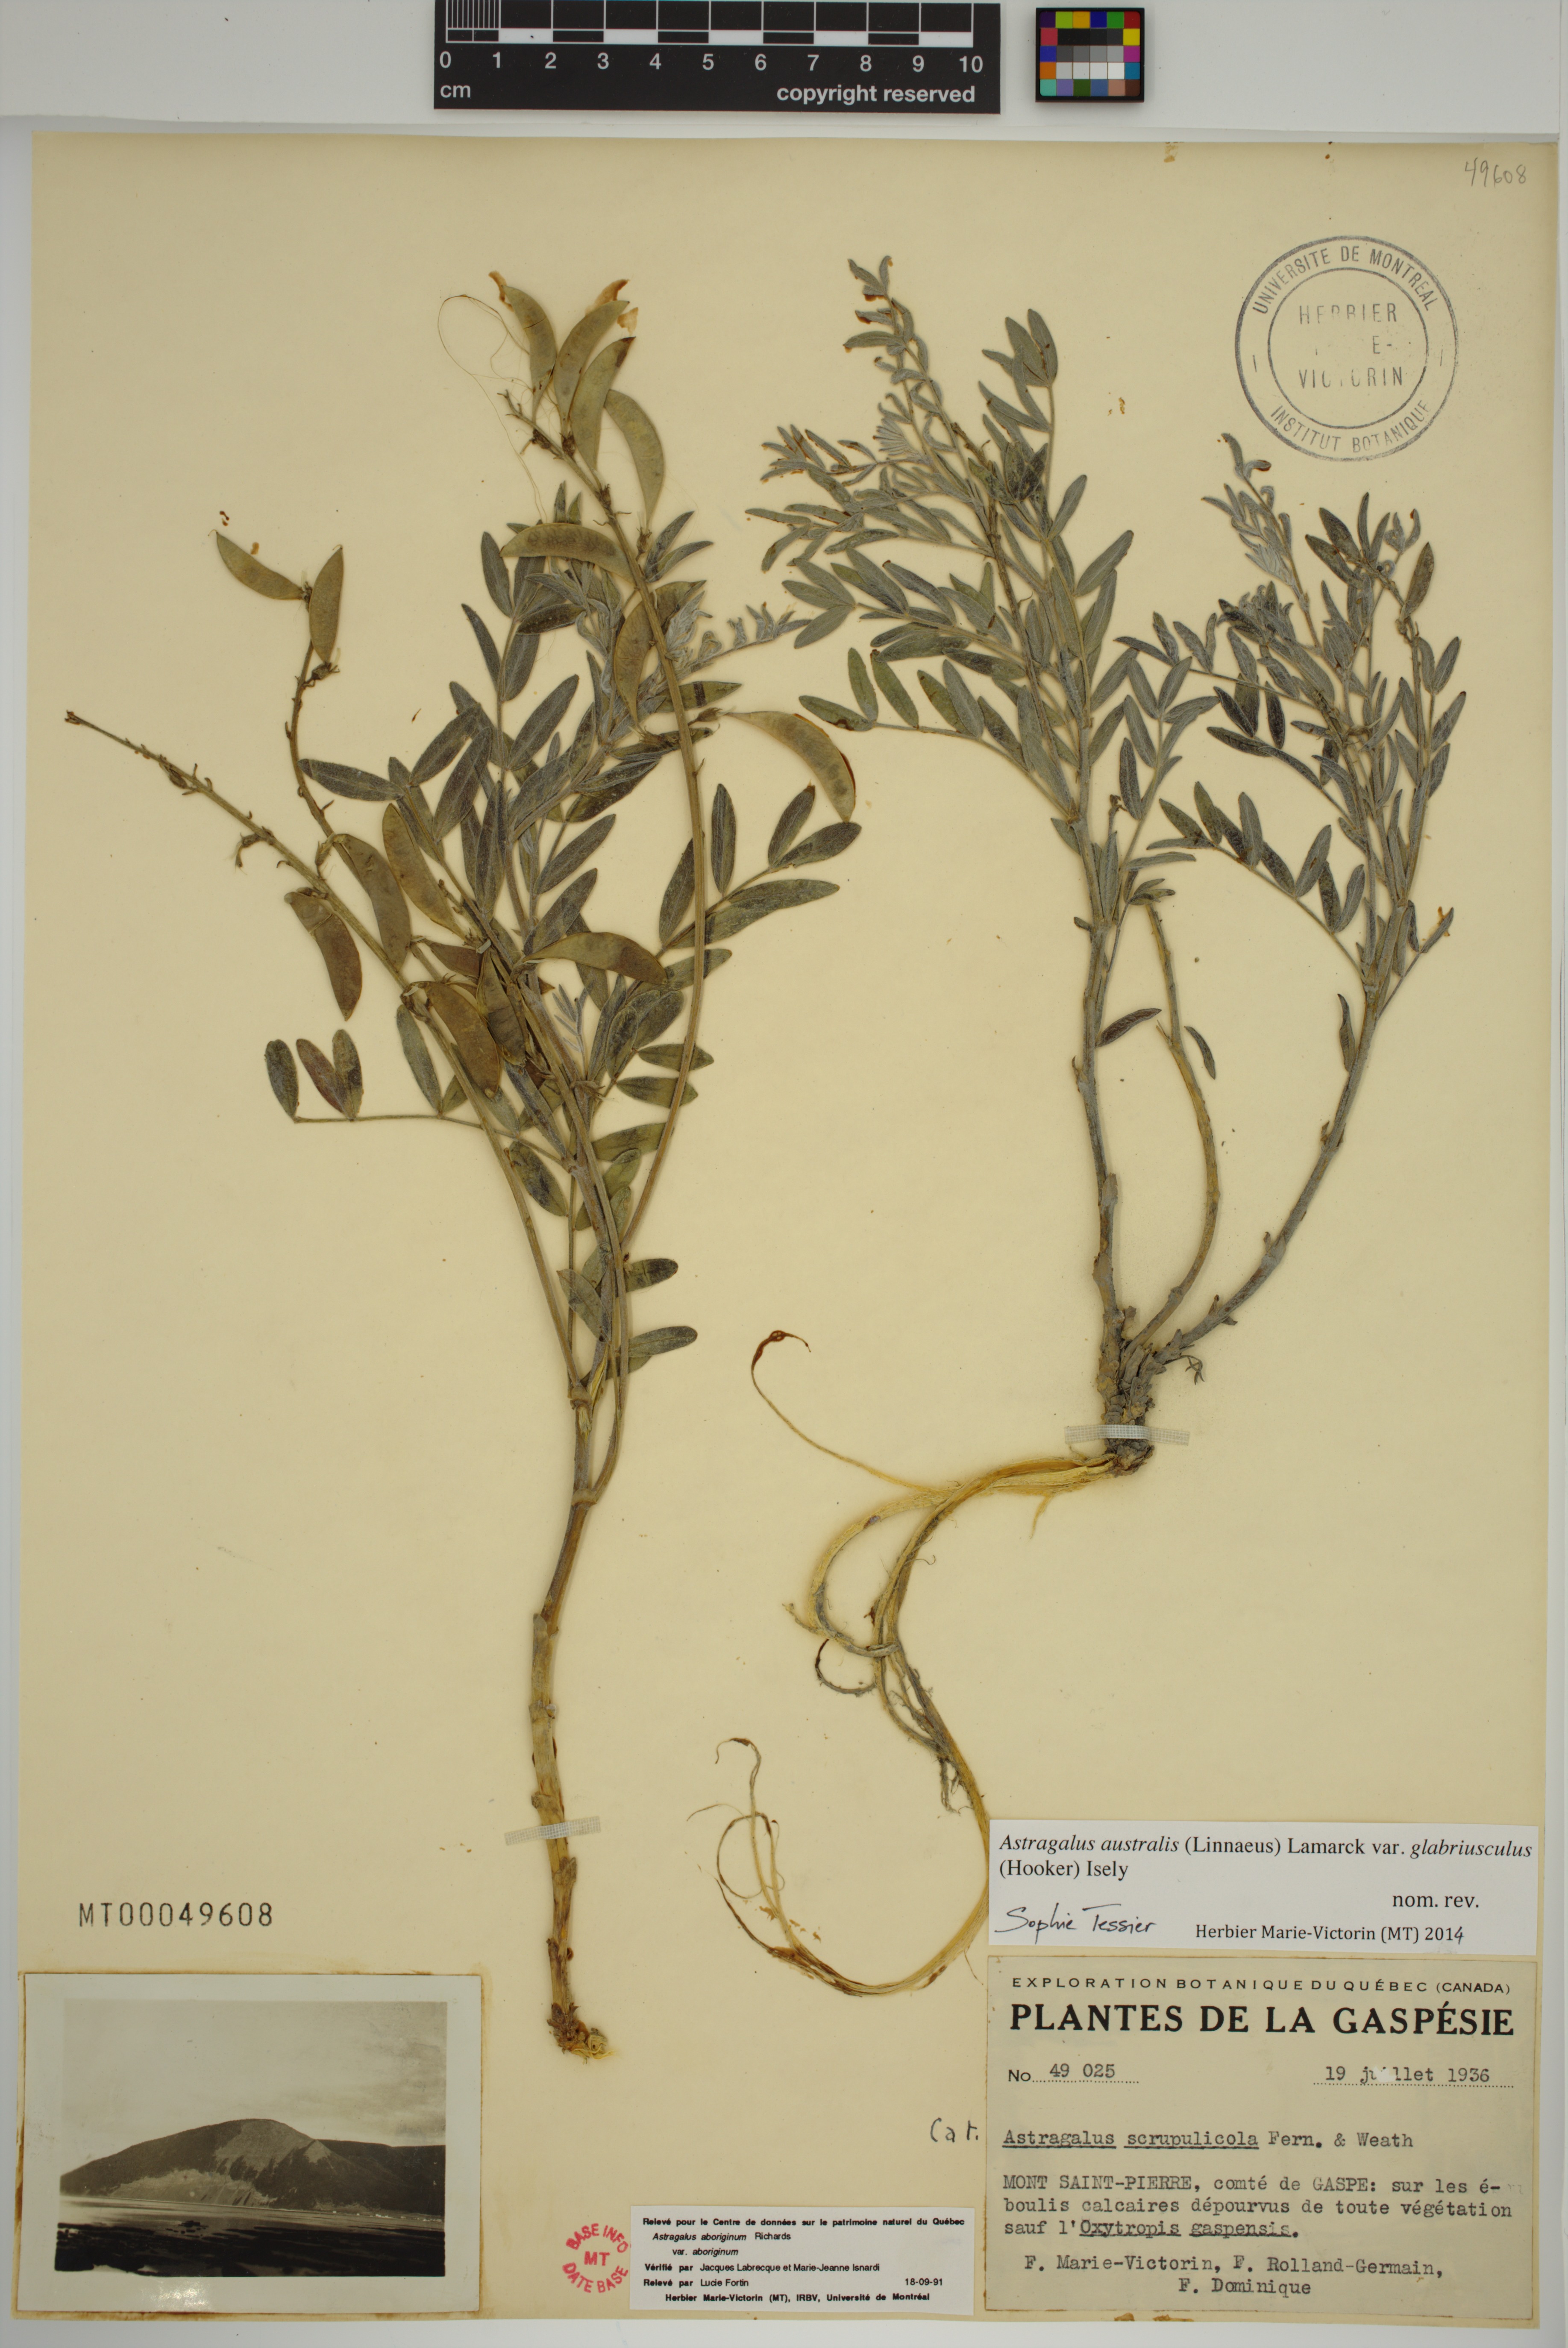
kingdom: Plantae
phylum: Tracheophyta
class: Magnoliopsida
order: Fabales
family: Fabaceae
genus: Astragalus
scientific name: Astragalus aboriginorum
